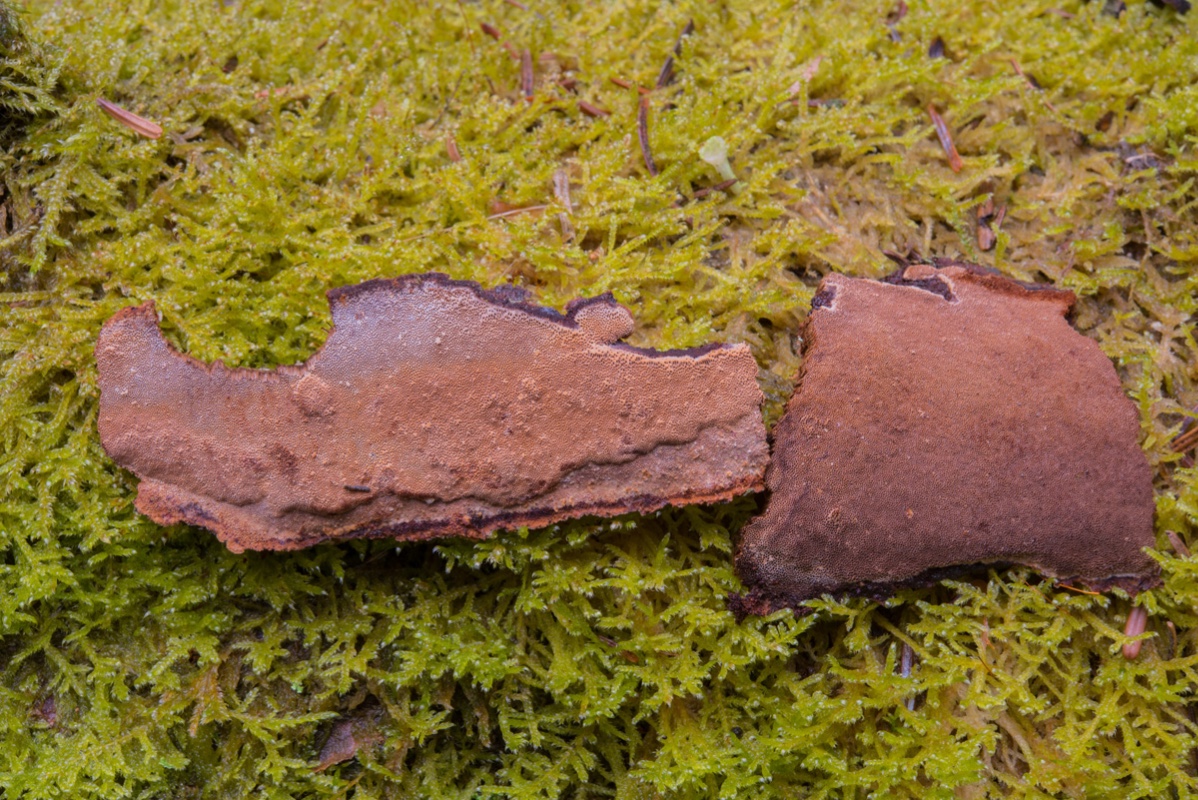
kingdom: Fungi
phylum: Basidiomycota
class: Agaricomycetes
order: Hymenochaetales
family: Hymenochaetaceae
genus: Fuscoporia
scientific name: Fuscoporia ferrea
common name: skorpe-ildporesvamp
